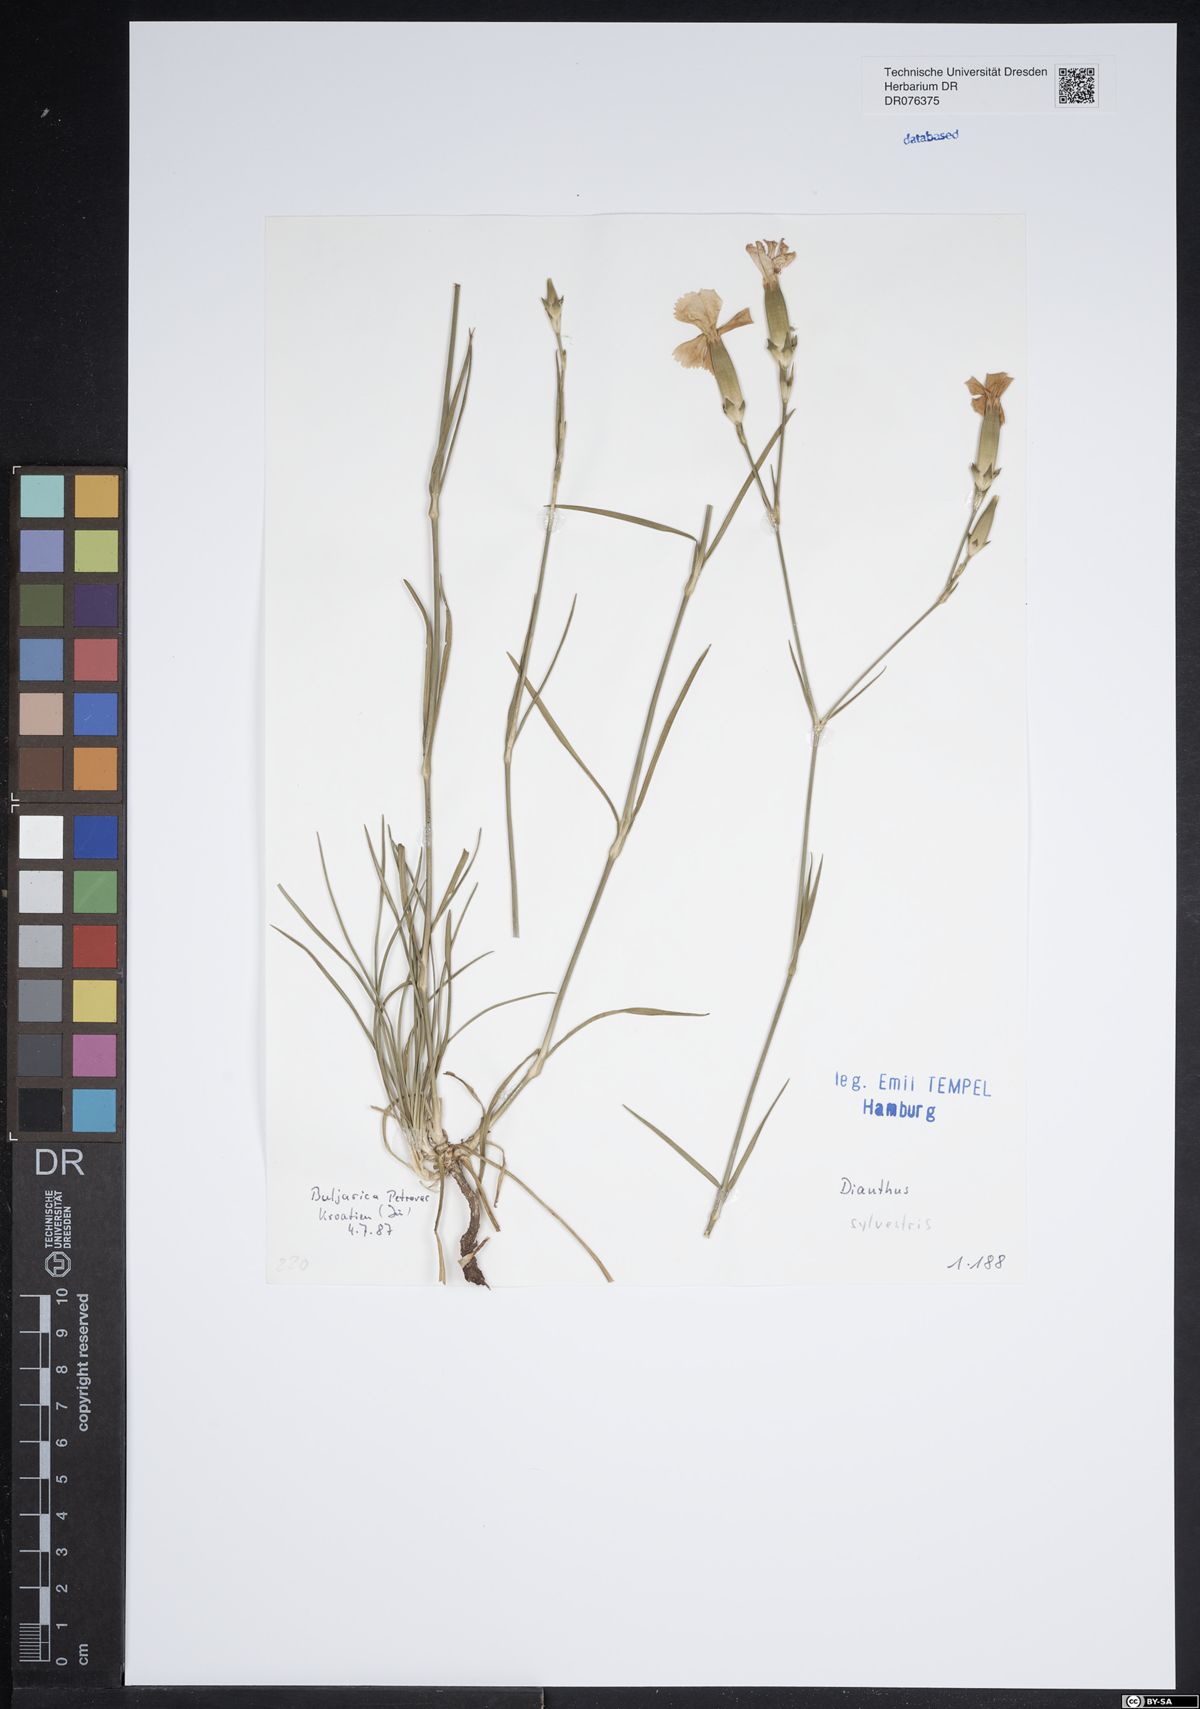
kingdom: Plantae
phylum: Tracheophyta
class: Magnoliopsida
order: Caryophyllales
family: Caryophyllaceae
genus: Dianthus
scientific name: Dianthus sylvestris
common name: Wood pink
